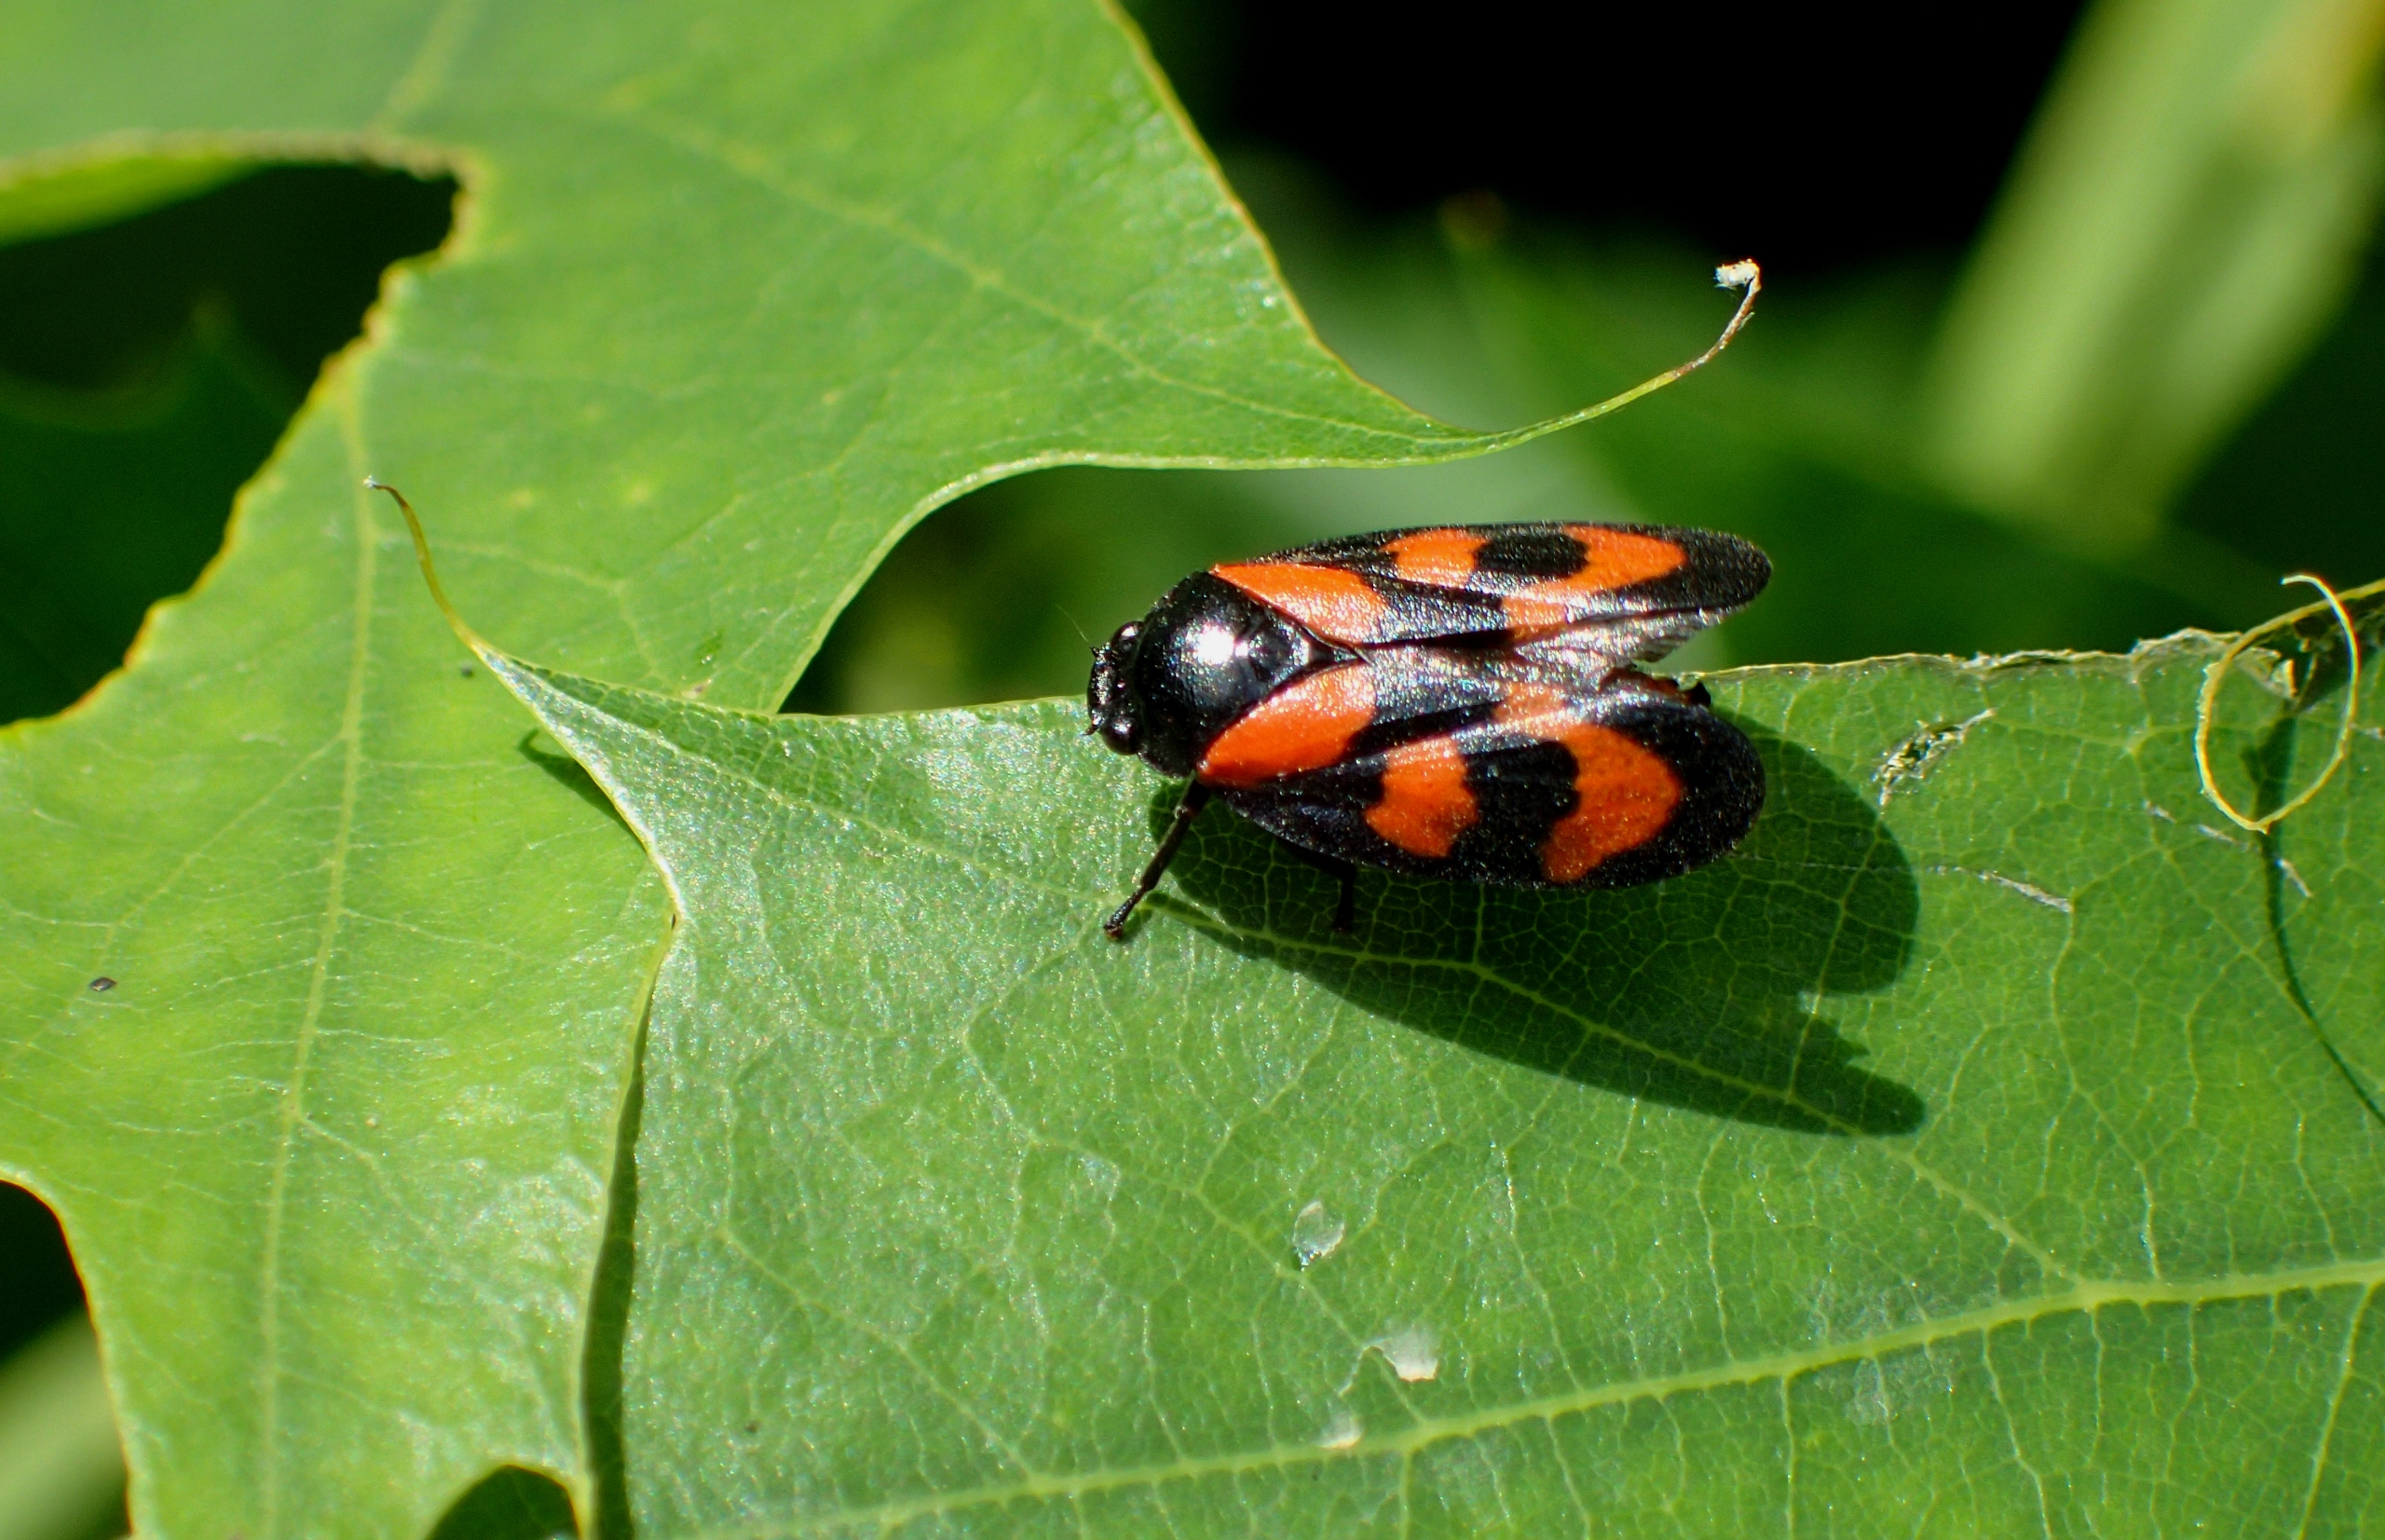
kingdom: Animalia
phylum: Arthropoda
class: Insecta
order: Hemiptera
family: Cercopidae
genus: Cercopis
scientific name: Cercopis vulnerata
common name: Blodcikade
